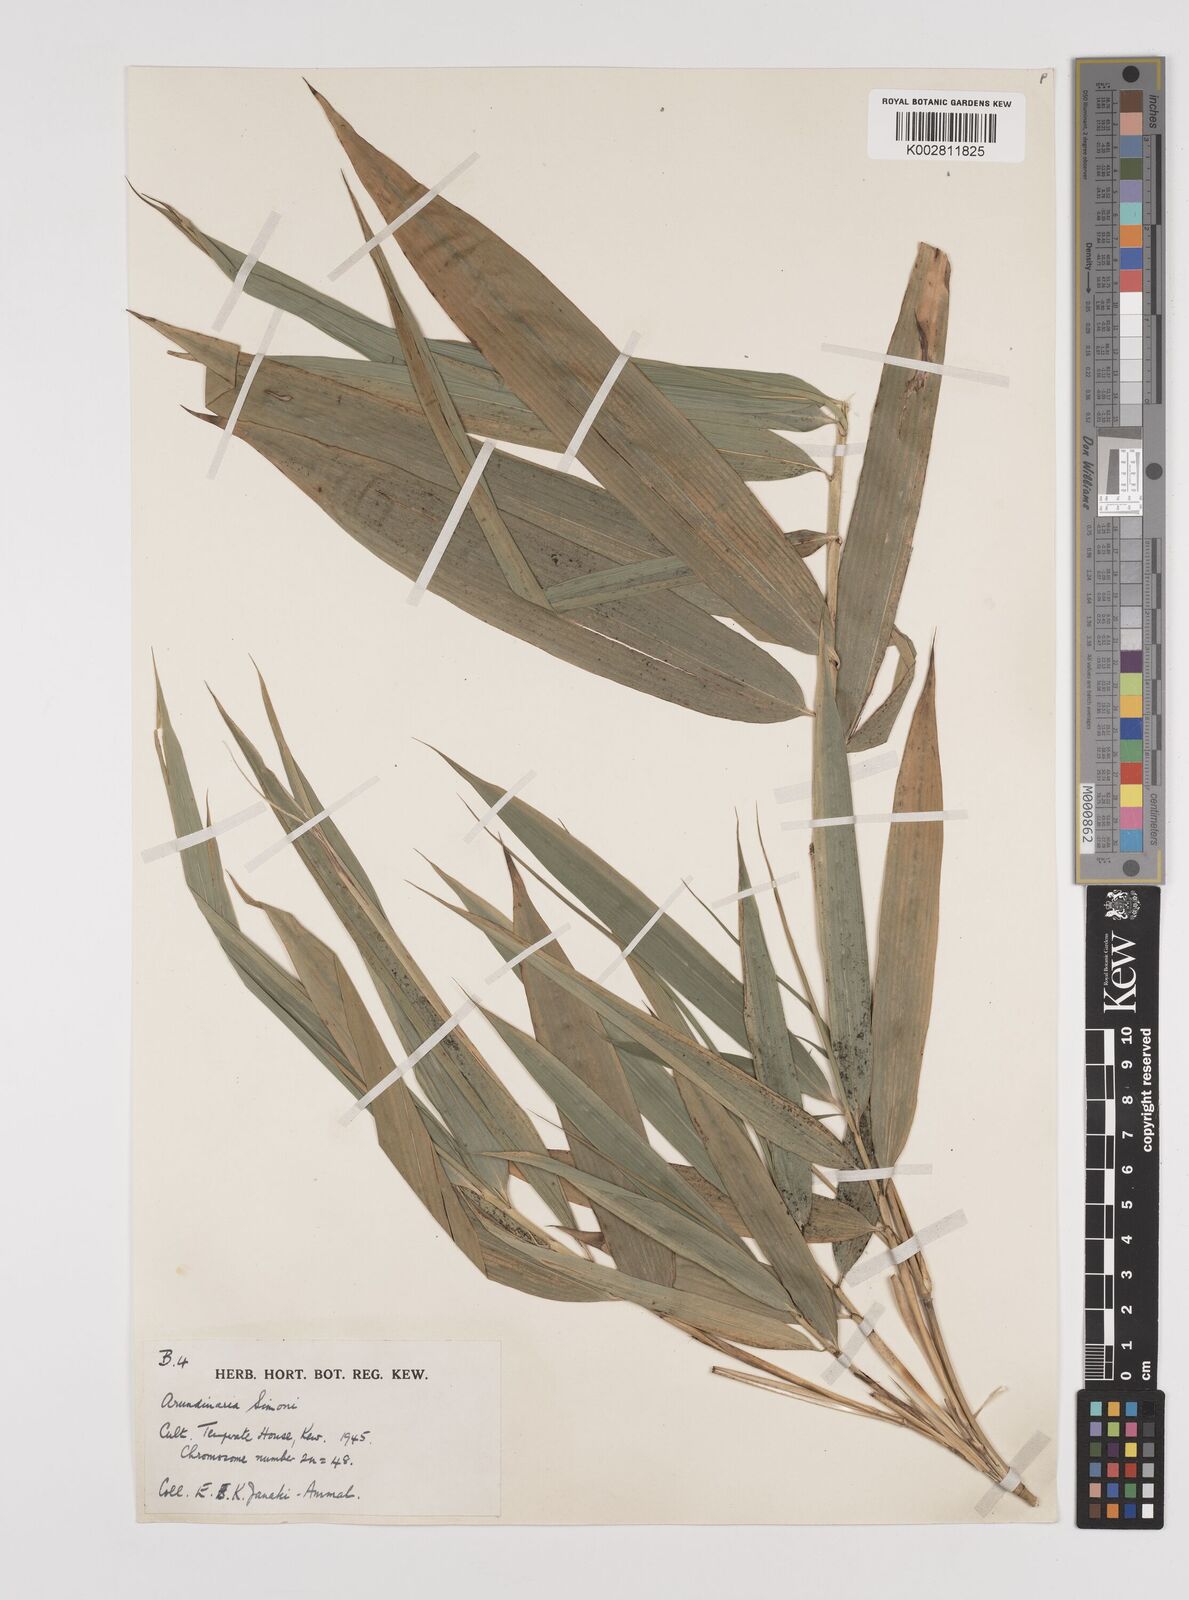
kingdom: Plantae
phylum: Tracheophyta
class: Liliopsida
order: Poales
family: Poaceae
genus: Pleioblastus
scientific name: Pleioblastus simonii
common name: Simon bamboo
